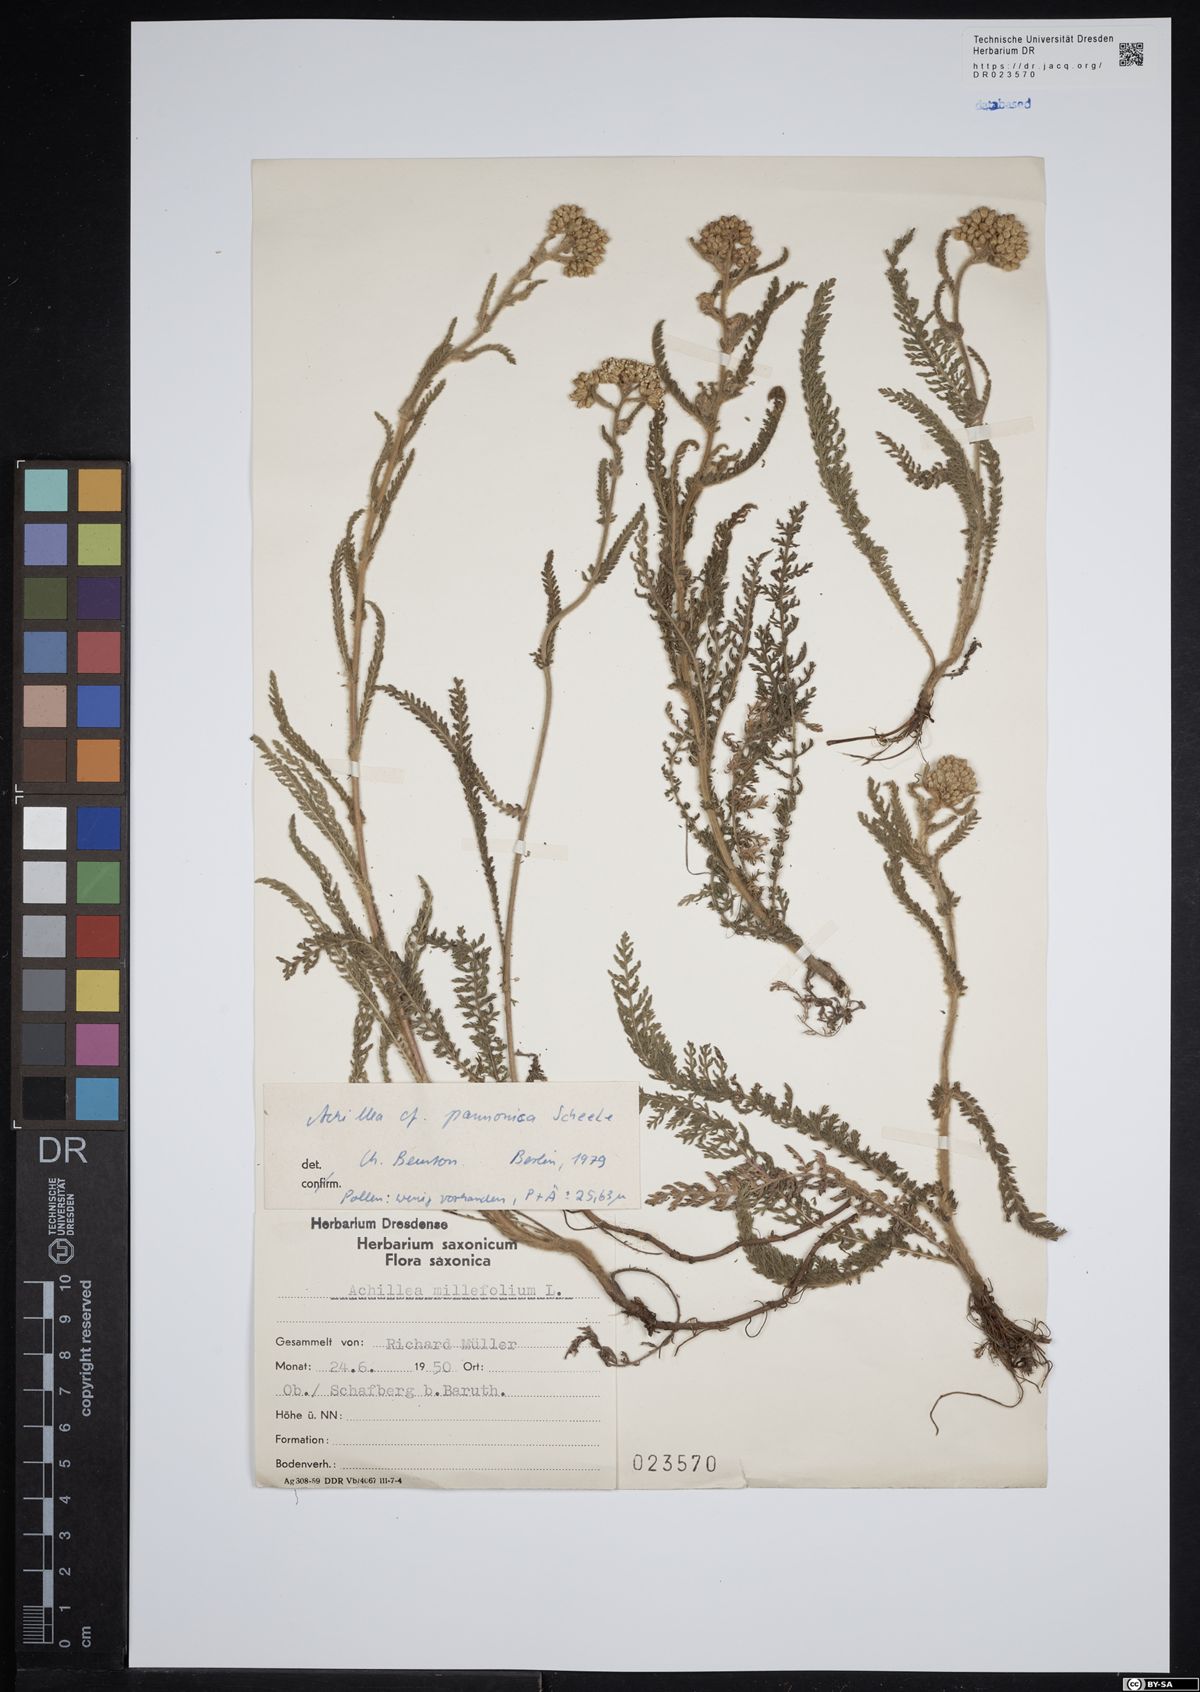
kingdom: Plantae
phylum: Tracheophyta
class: Magnoliopsida
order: Asterales
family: Asteraceae
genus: Achillea
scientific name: Achillea pannonica
